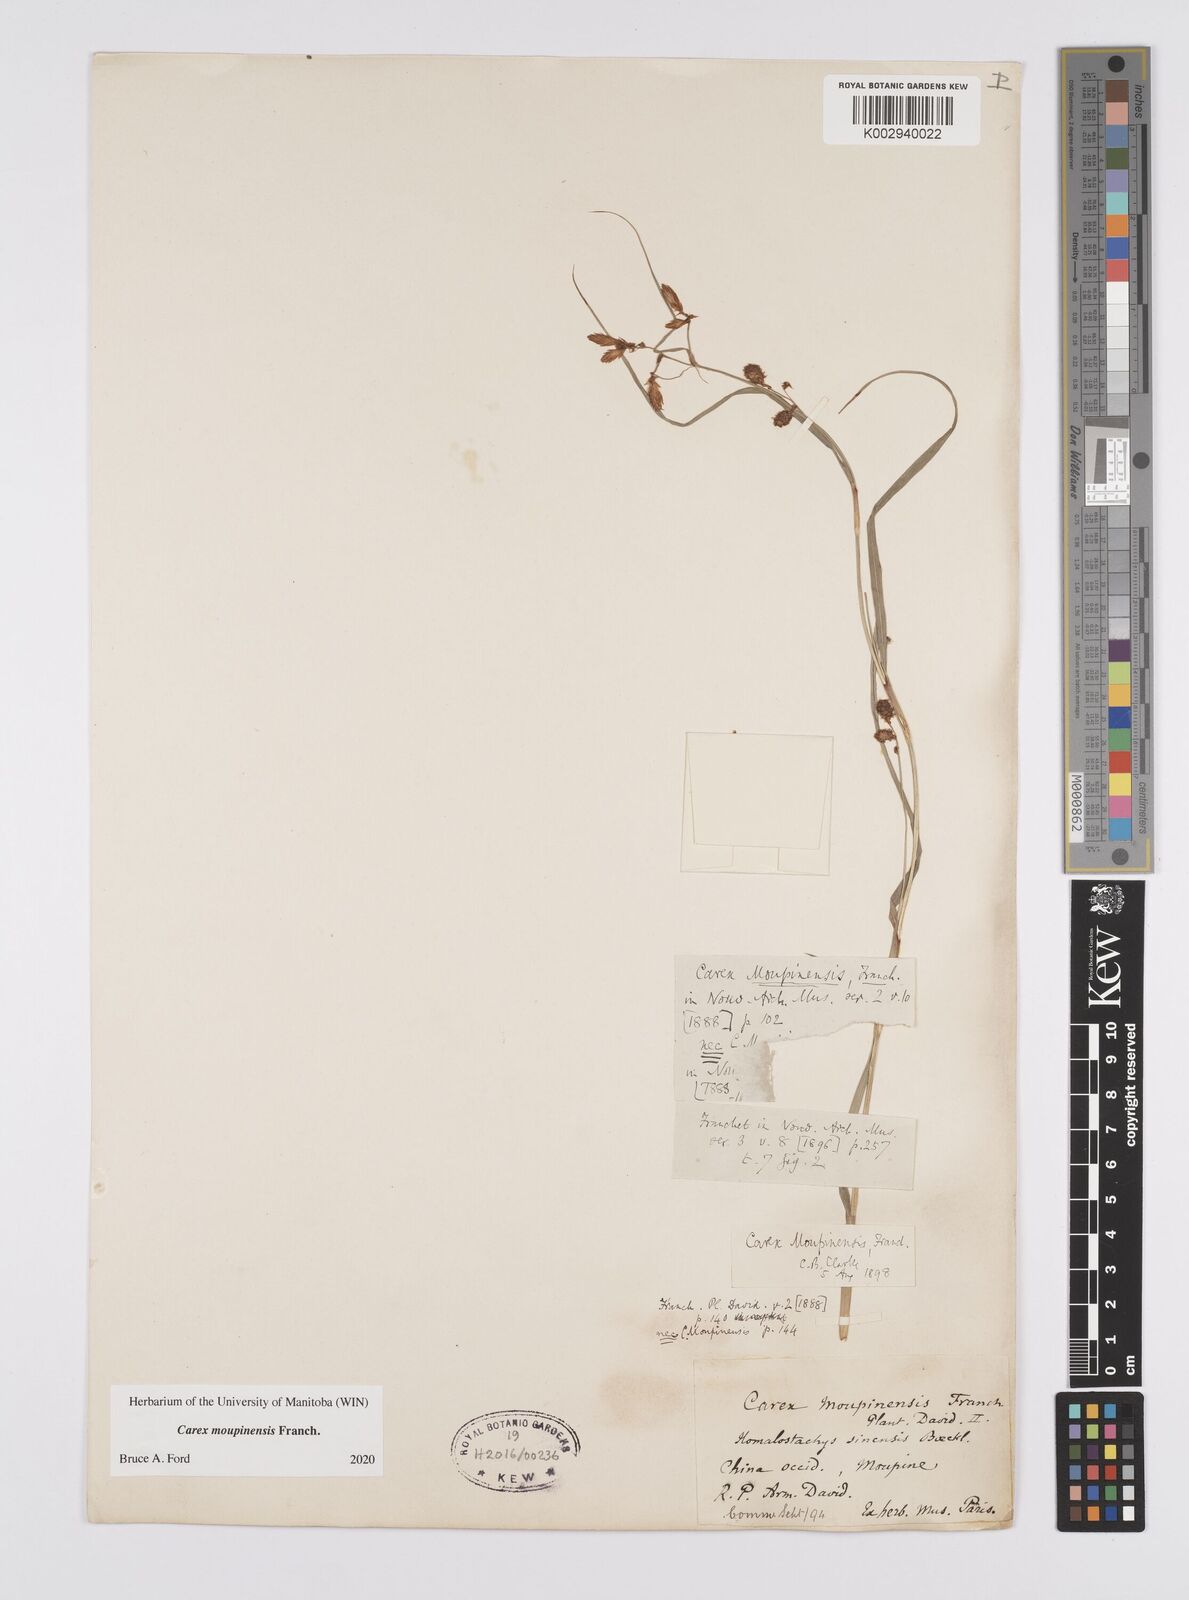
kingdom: Plantae
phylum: Tracheophyta
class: Liliopsida
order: Poales
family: Cyperaceae
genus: Carex
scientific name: Carex moupinensis
